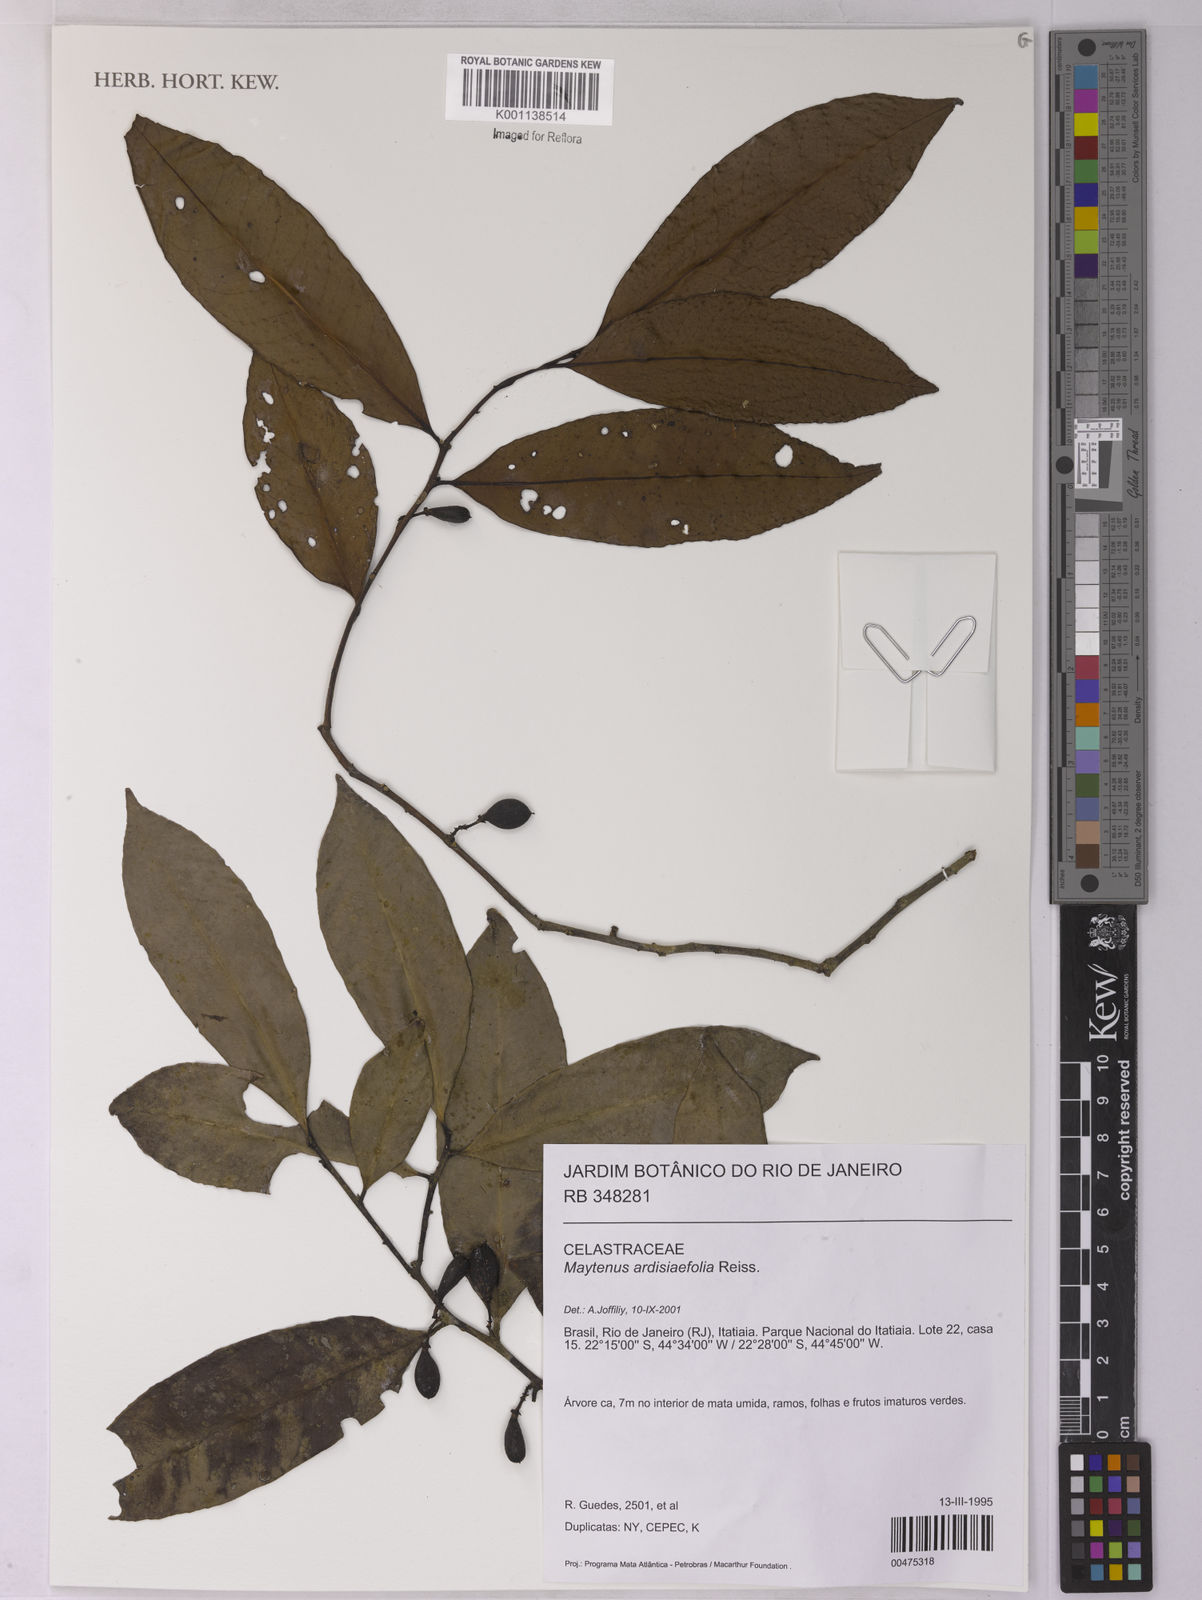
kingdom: Plantae
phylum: Tracheophyta
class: Magnoliopsida
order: Celastrales
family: Celastraceae
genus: Monteverdia
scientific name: Monteverdia ardisiifolia
